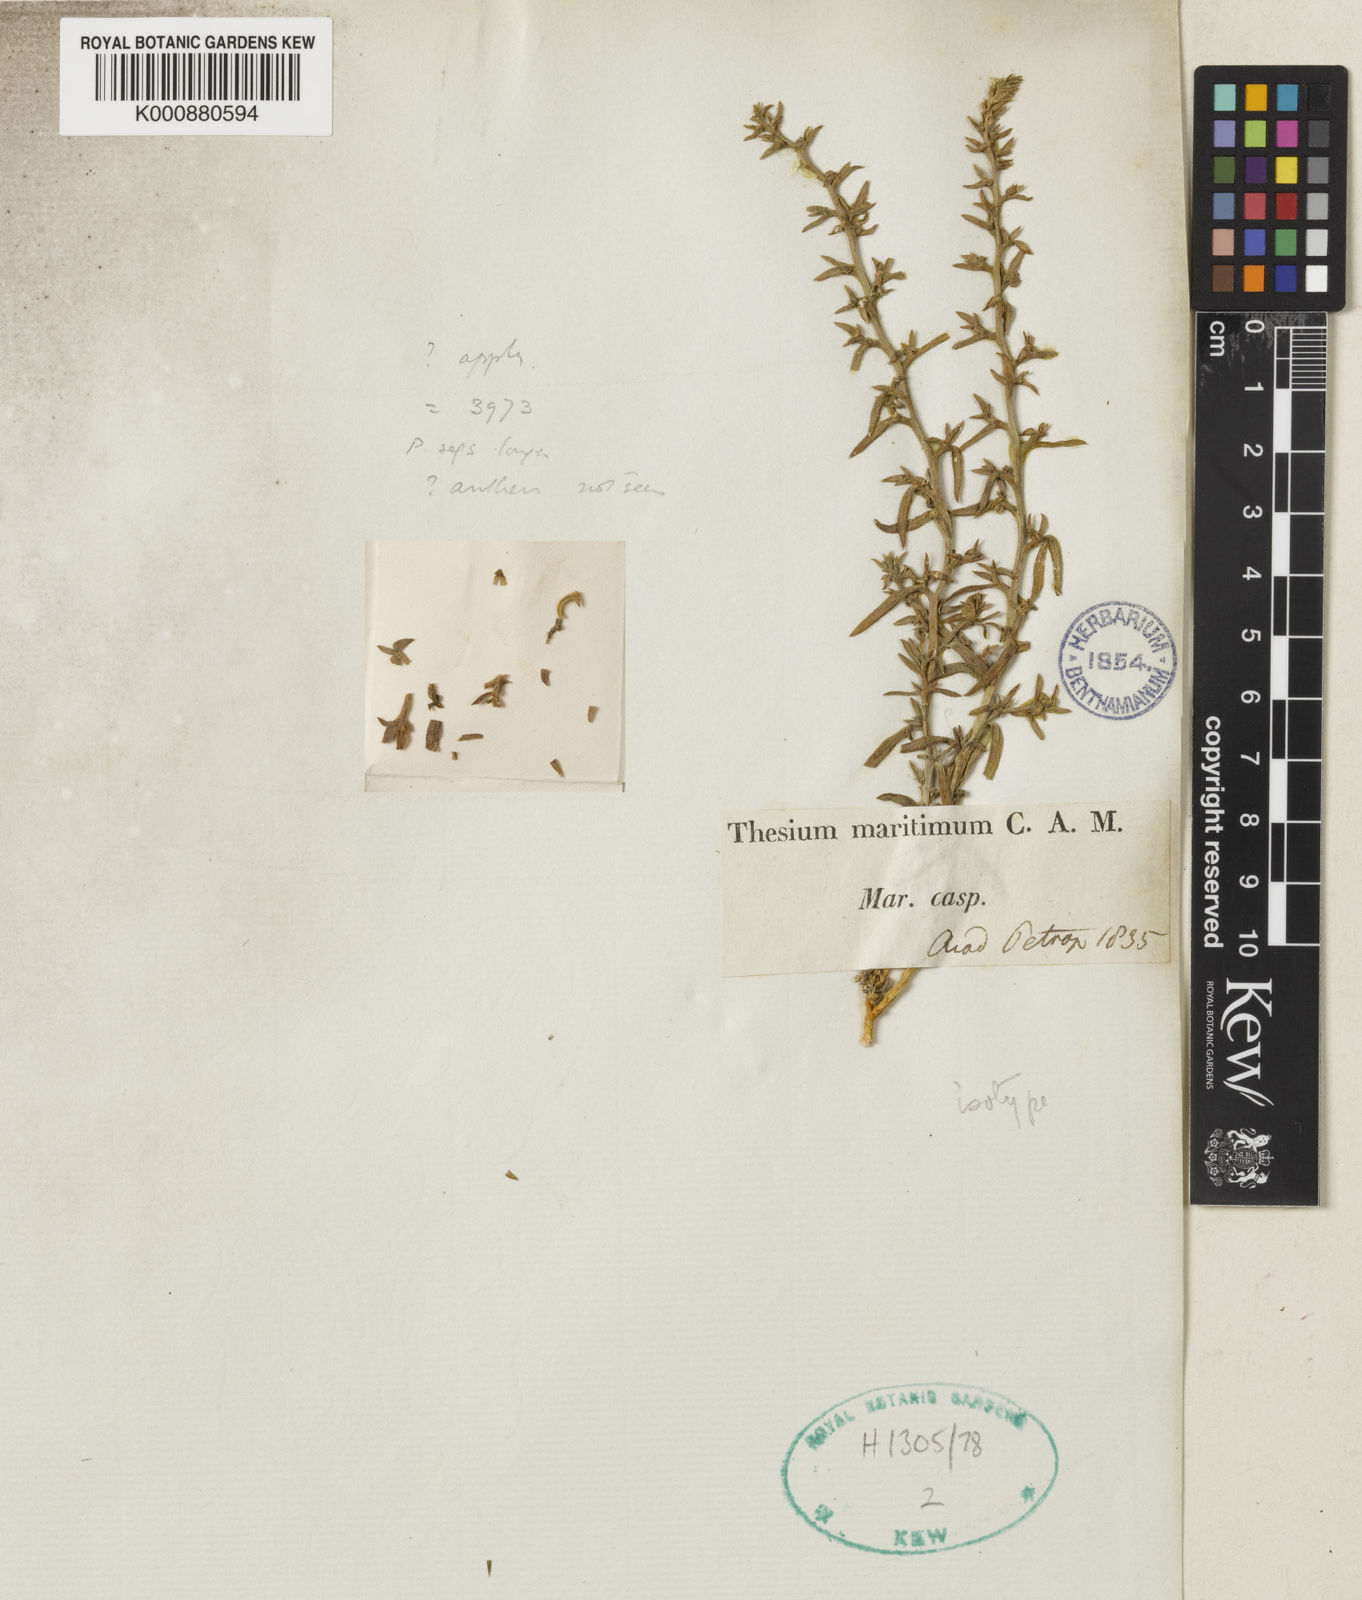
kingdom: Plantae
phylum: Tracheophyta
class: Magnoliopsida
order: Santalales
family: Thesiaceae
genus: Thesium
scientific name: Thesium maritimum
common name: Coastal bastard toad-flax
